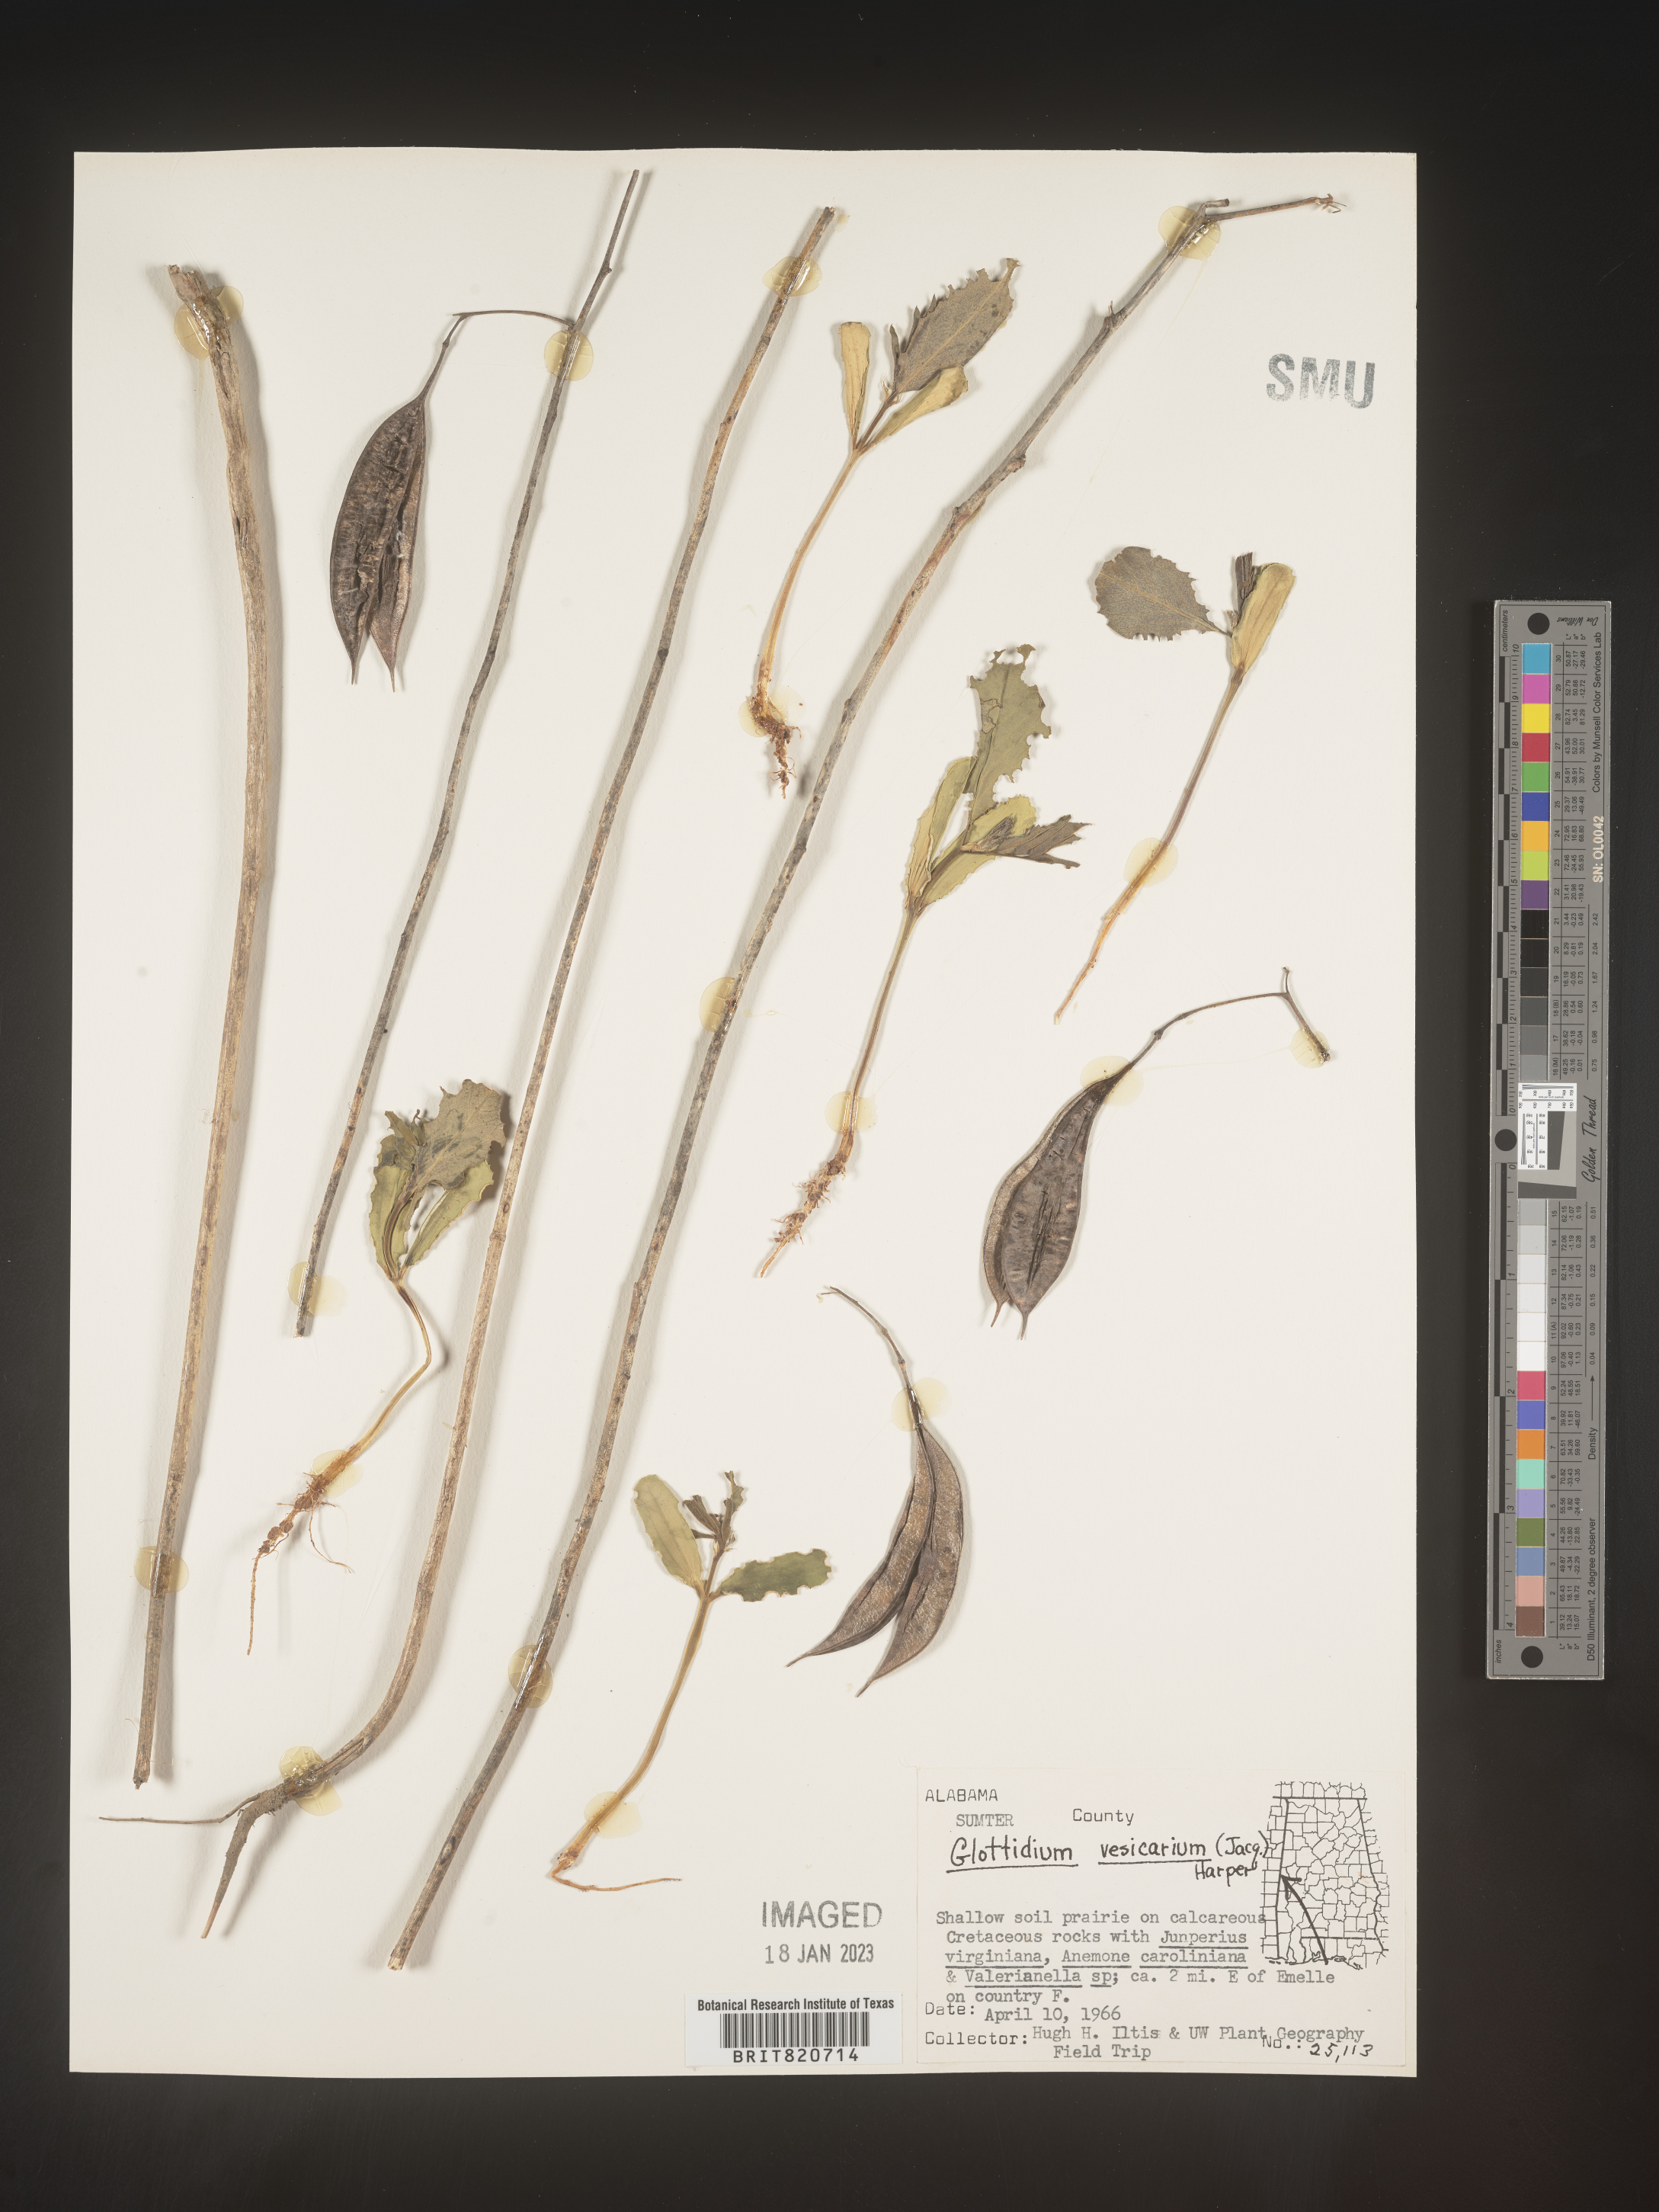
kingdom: Plantae
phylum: Tracheophyta
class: Magnoliopsida
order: Fabales
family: Fabaceae
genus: Sesbania
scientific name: Sesbania vesicaria
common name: Bagpod
